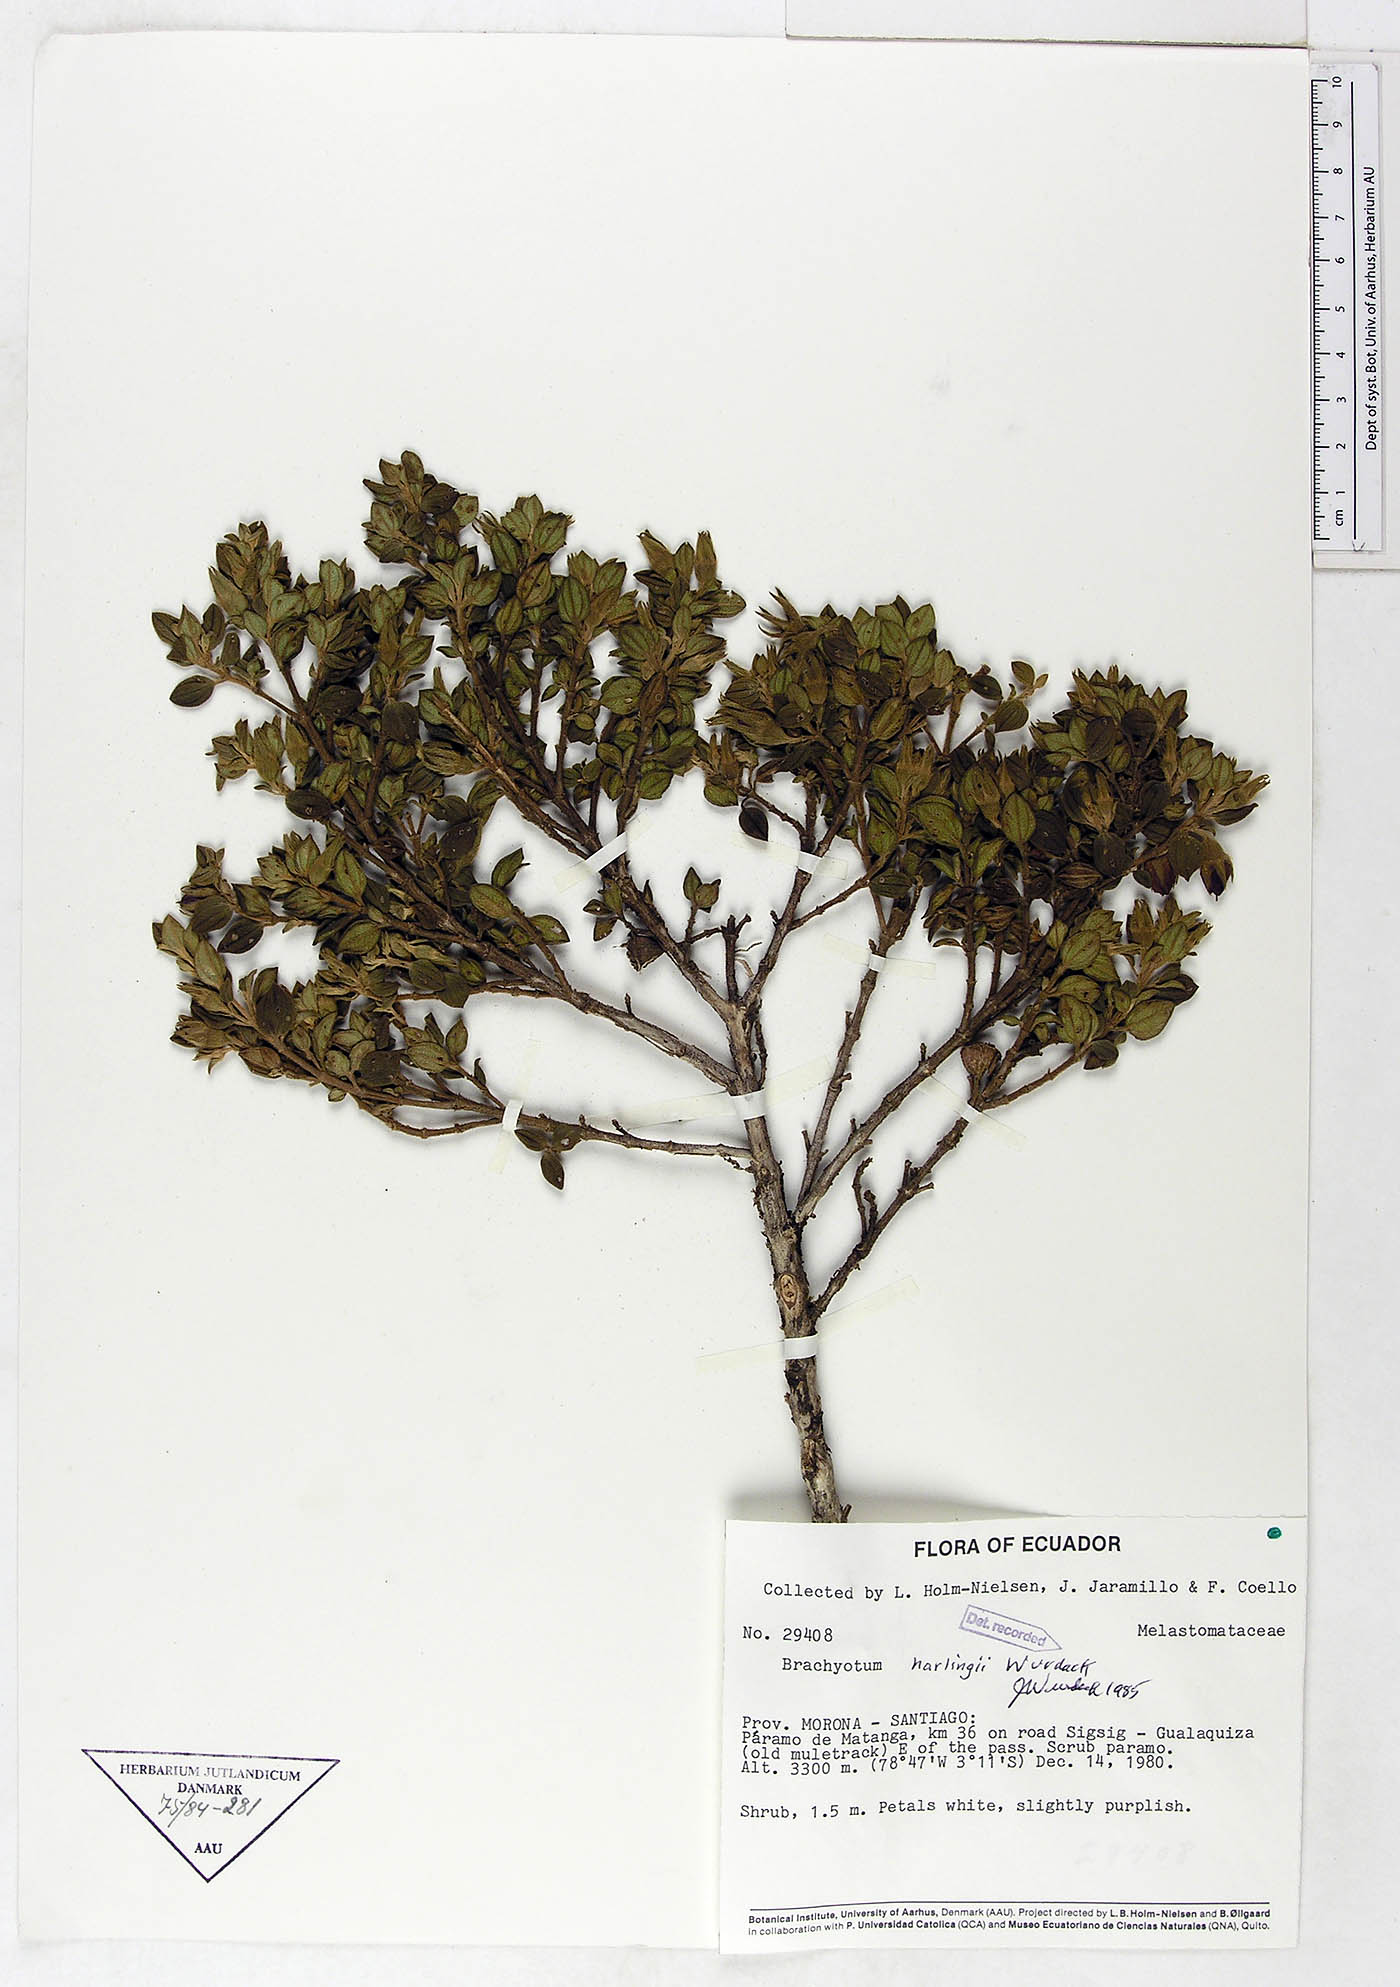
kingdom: Plantae
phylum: Tracheophyta
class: Magnoliopsida
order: Myrtales
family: Melastomataceae
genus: Brachyotum
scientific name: Brachyotum harlingii
